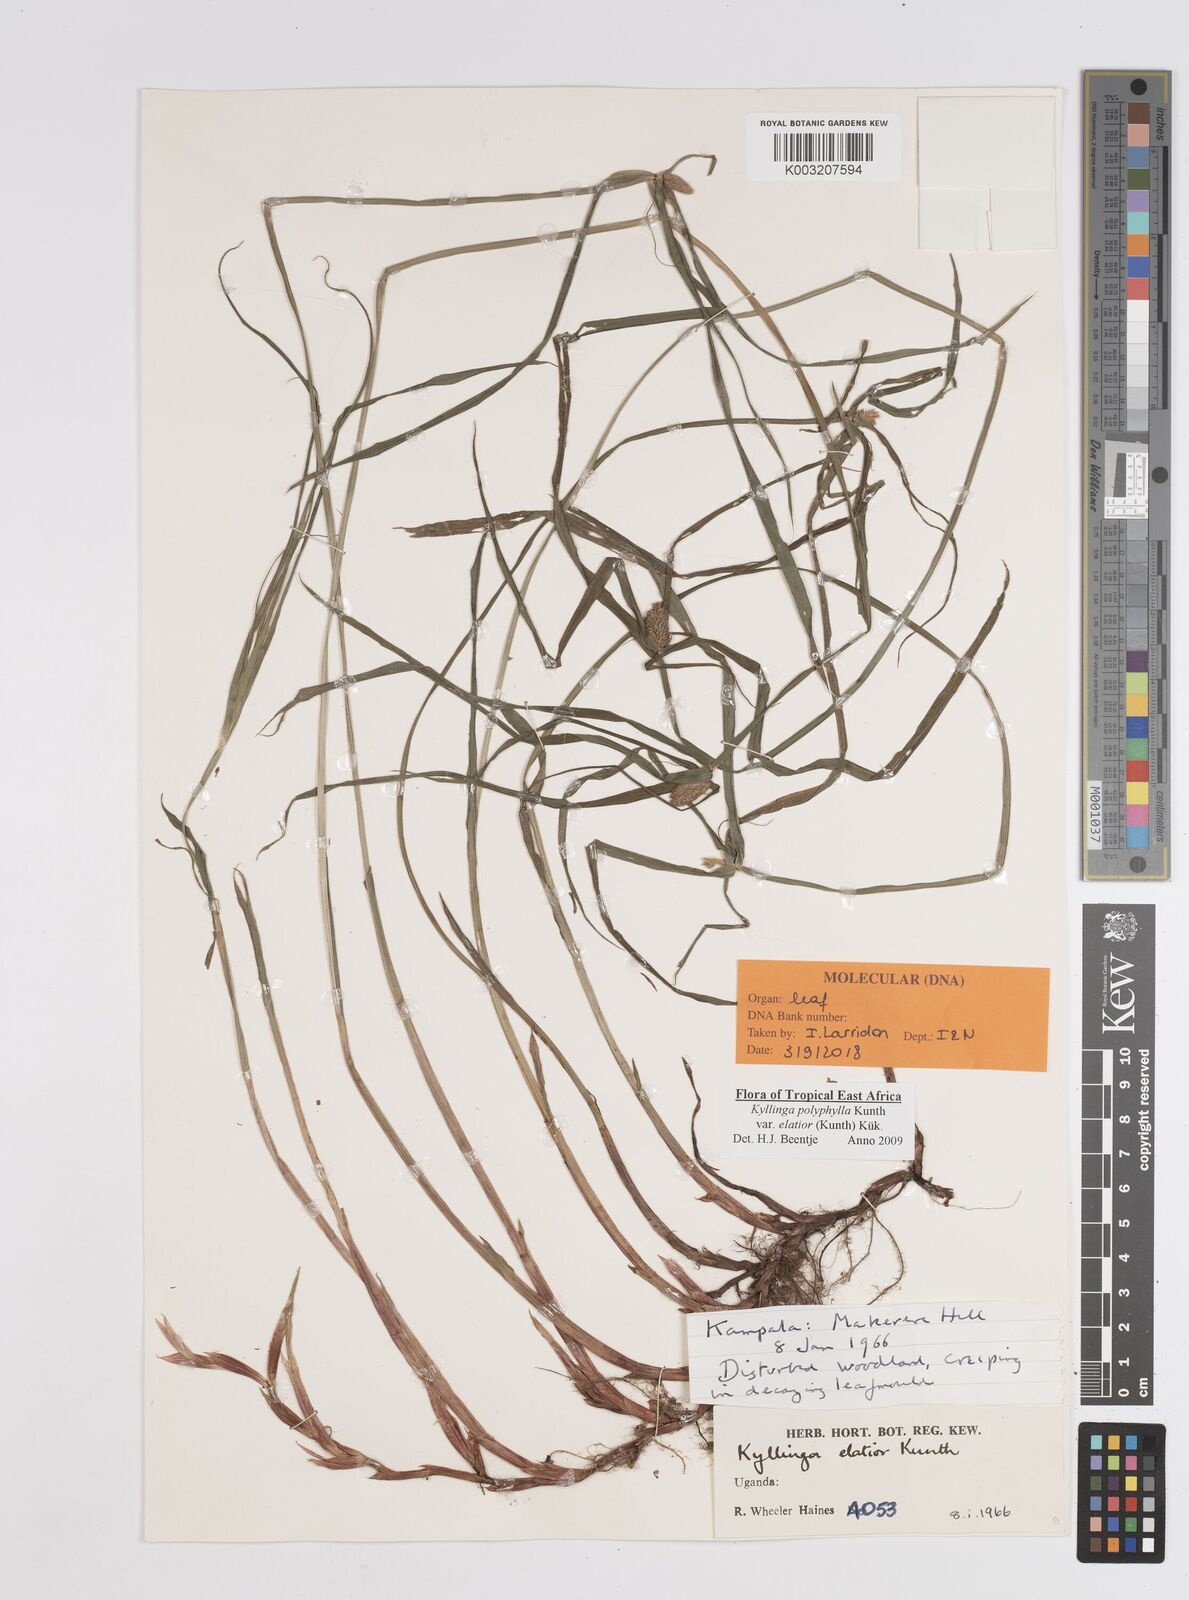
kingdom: Plantae
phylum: Tracheophyta
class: Liliopsida
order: Poales
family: Cyperaceae
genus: Cyperus
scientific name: Cyperus
